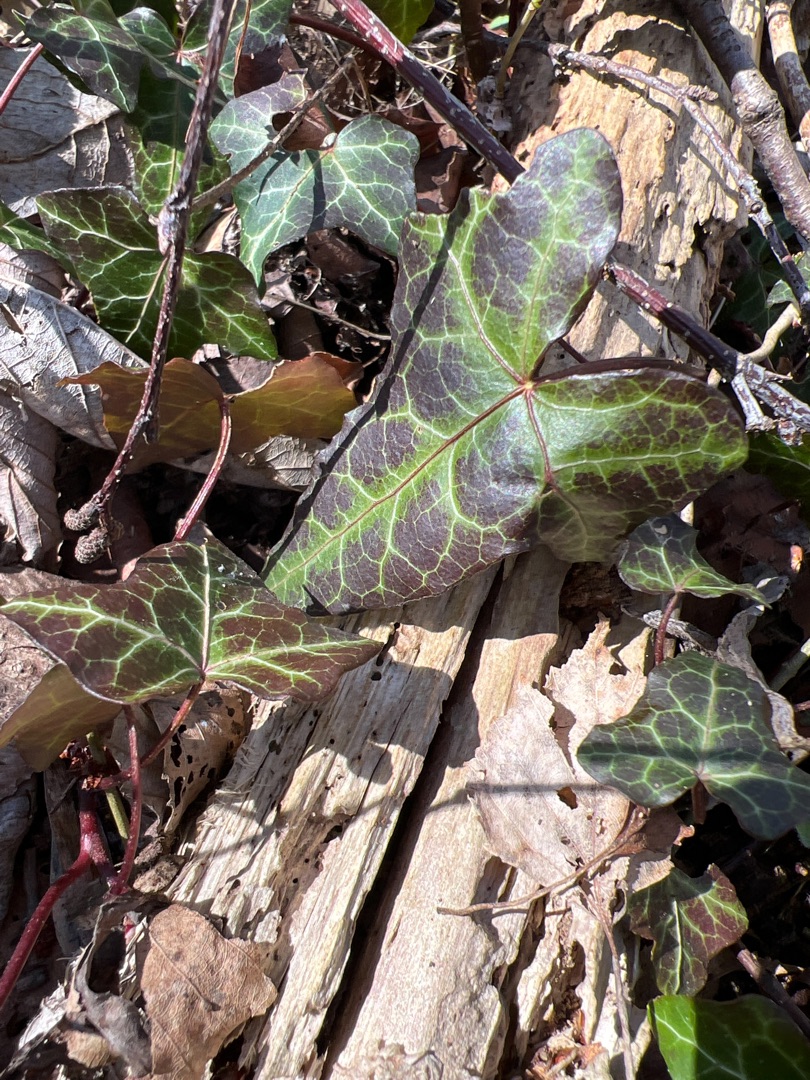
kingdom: Plantae
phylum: Tracheophyta
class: Magnoliopsida
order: Apiales
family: Araliaceae
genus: Hedera
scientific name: Hedera helix
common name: Vedbend
